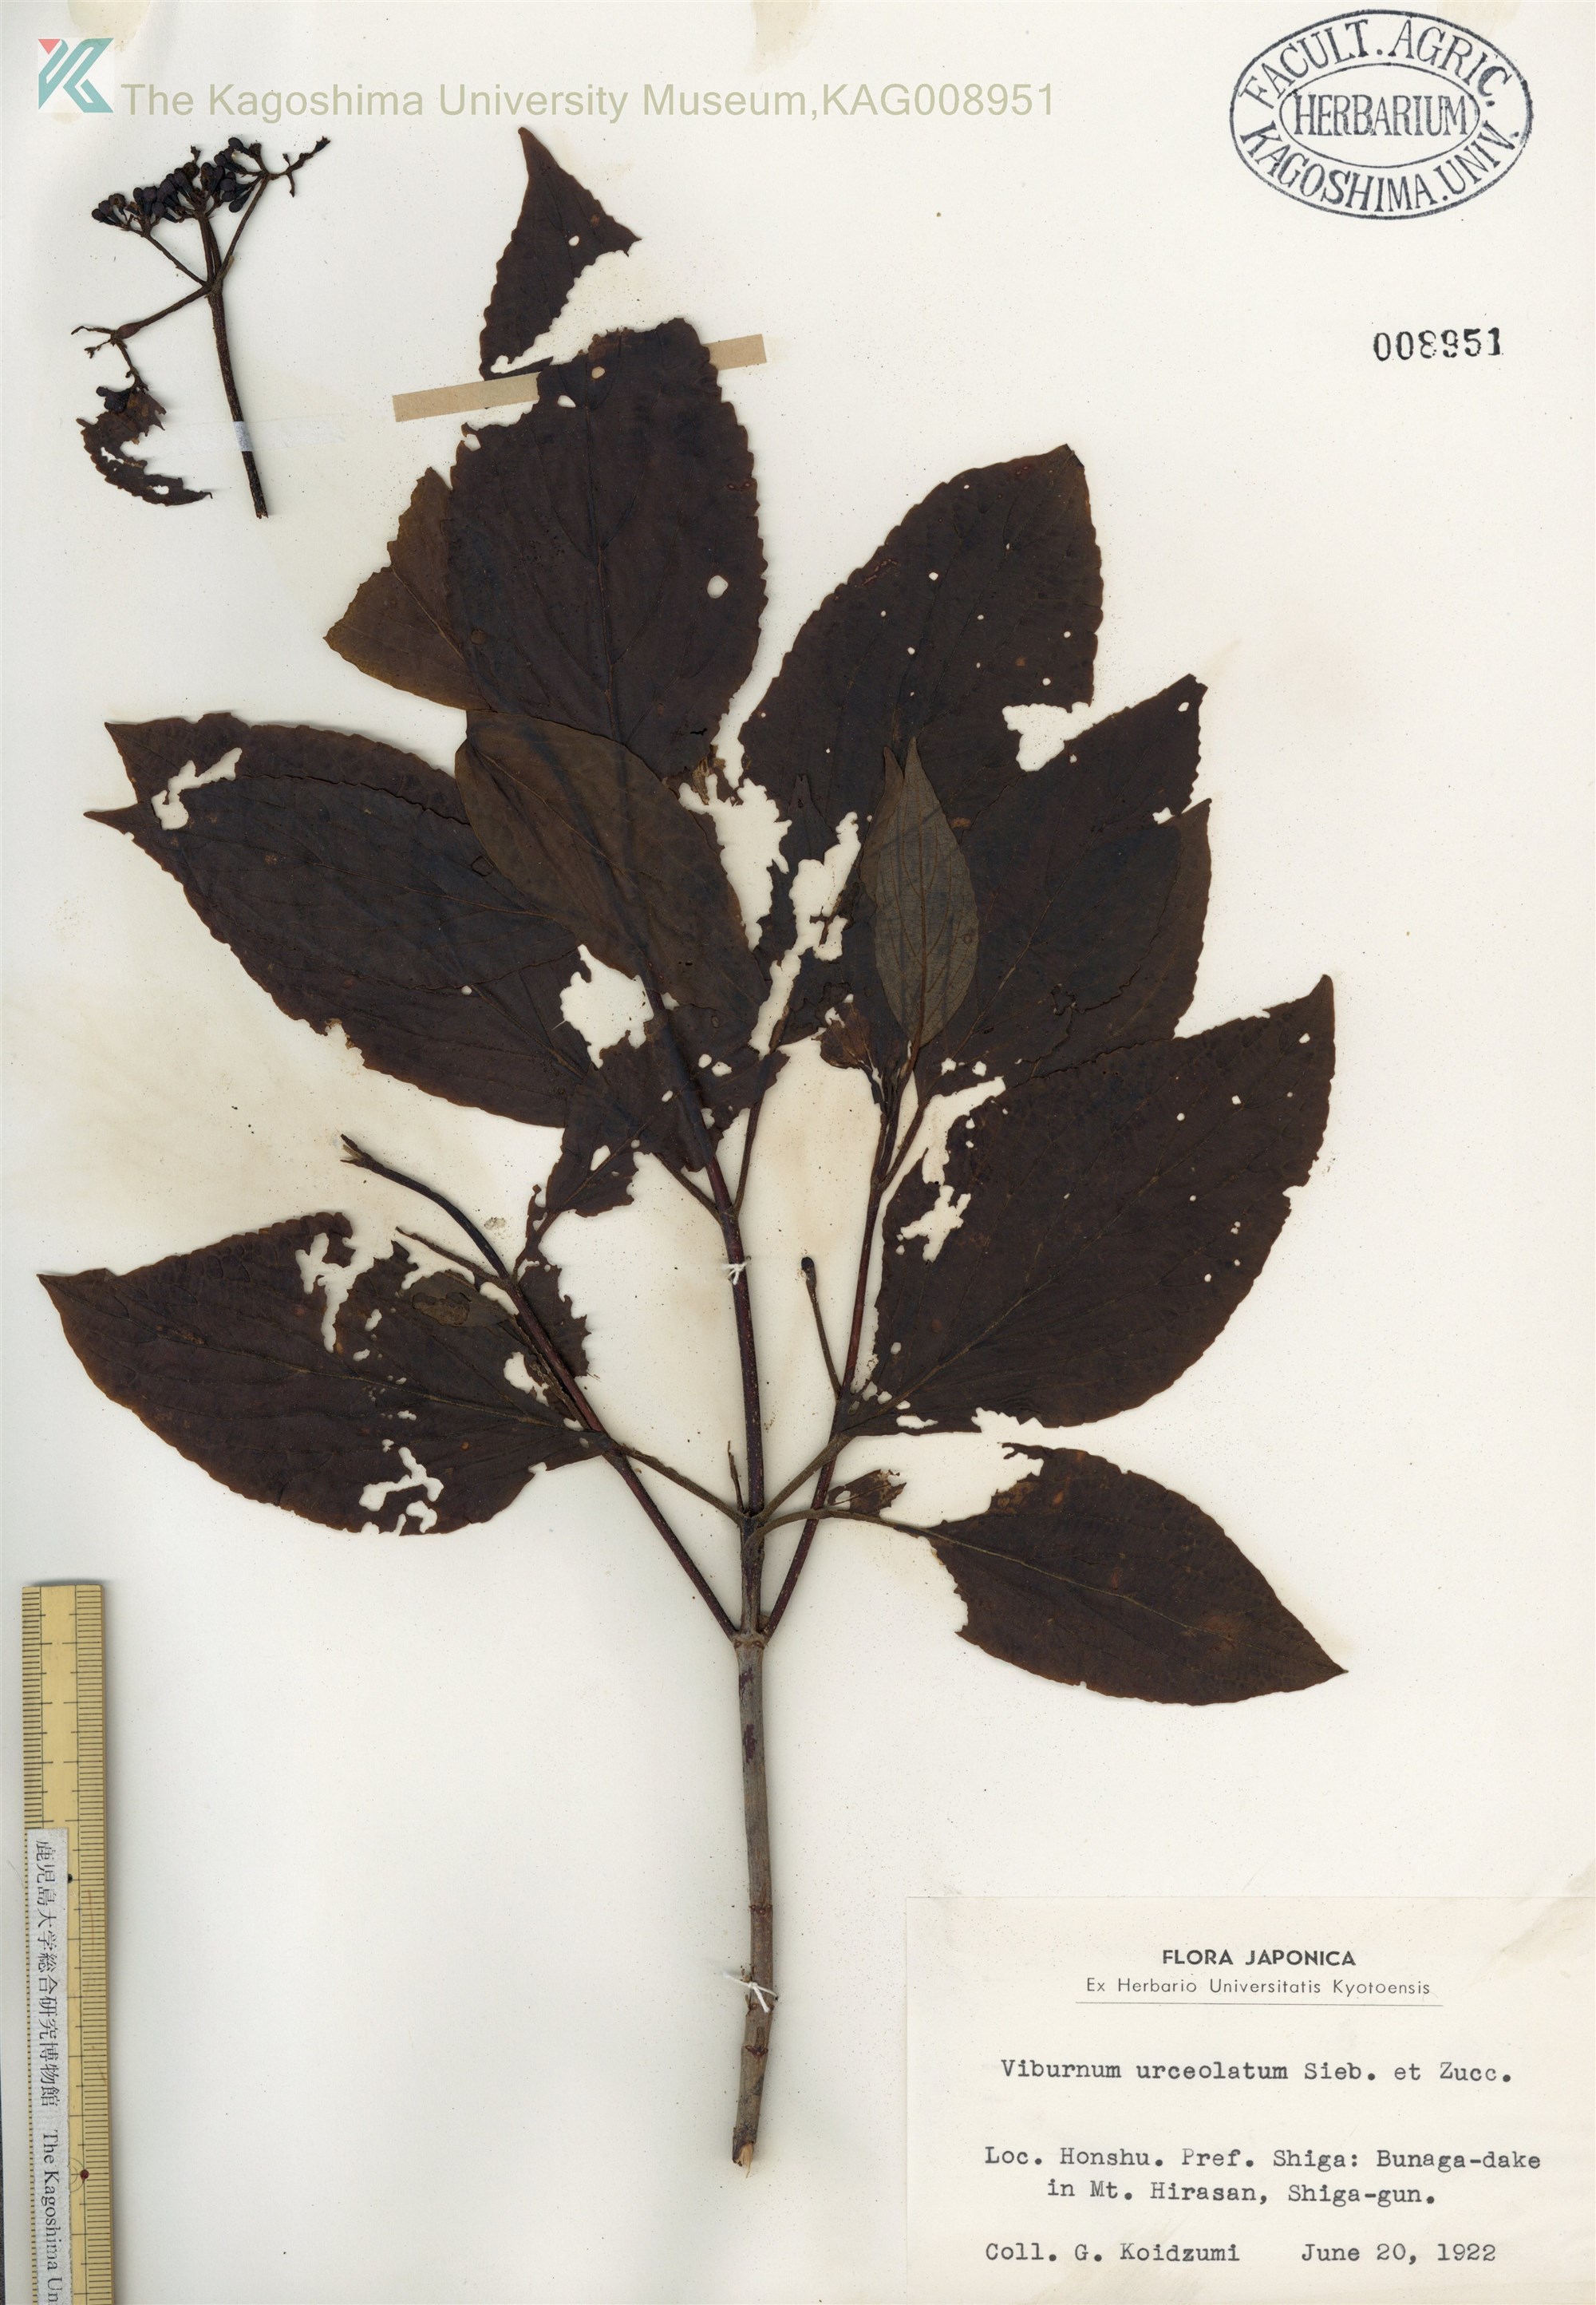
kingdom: Plantae
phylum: Tracheophyta
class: Magnoliopsida
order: Dipsacales
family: Viburnaceae
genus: Viburnum
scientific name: Viburnum urceolatum
